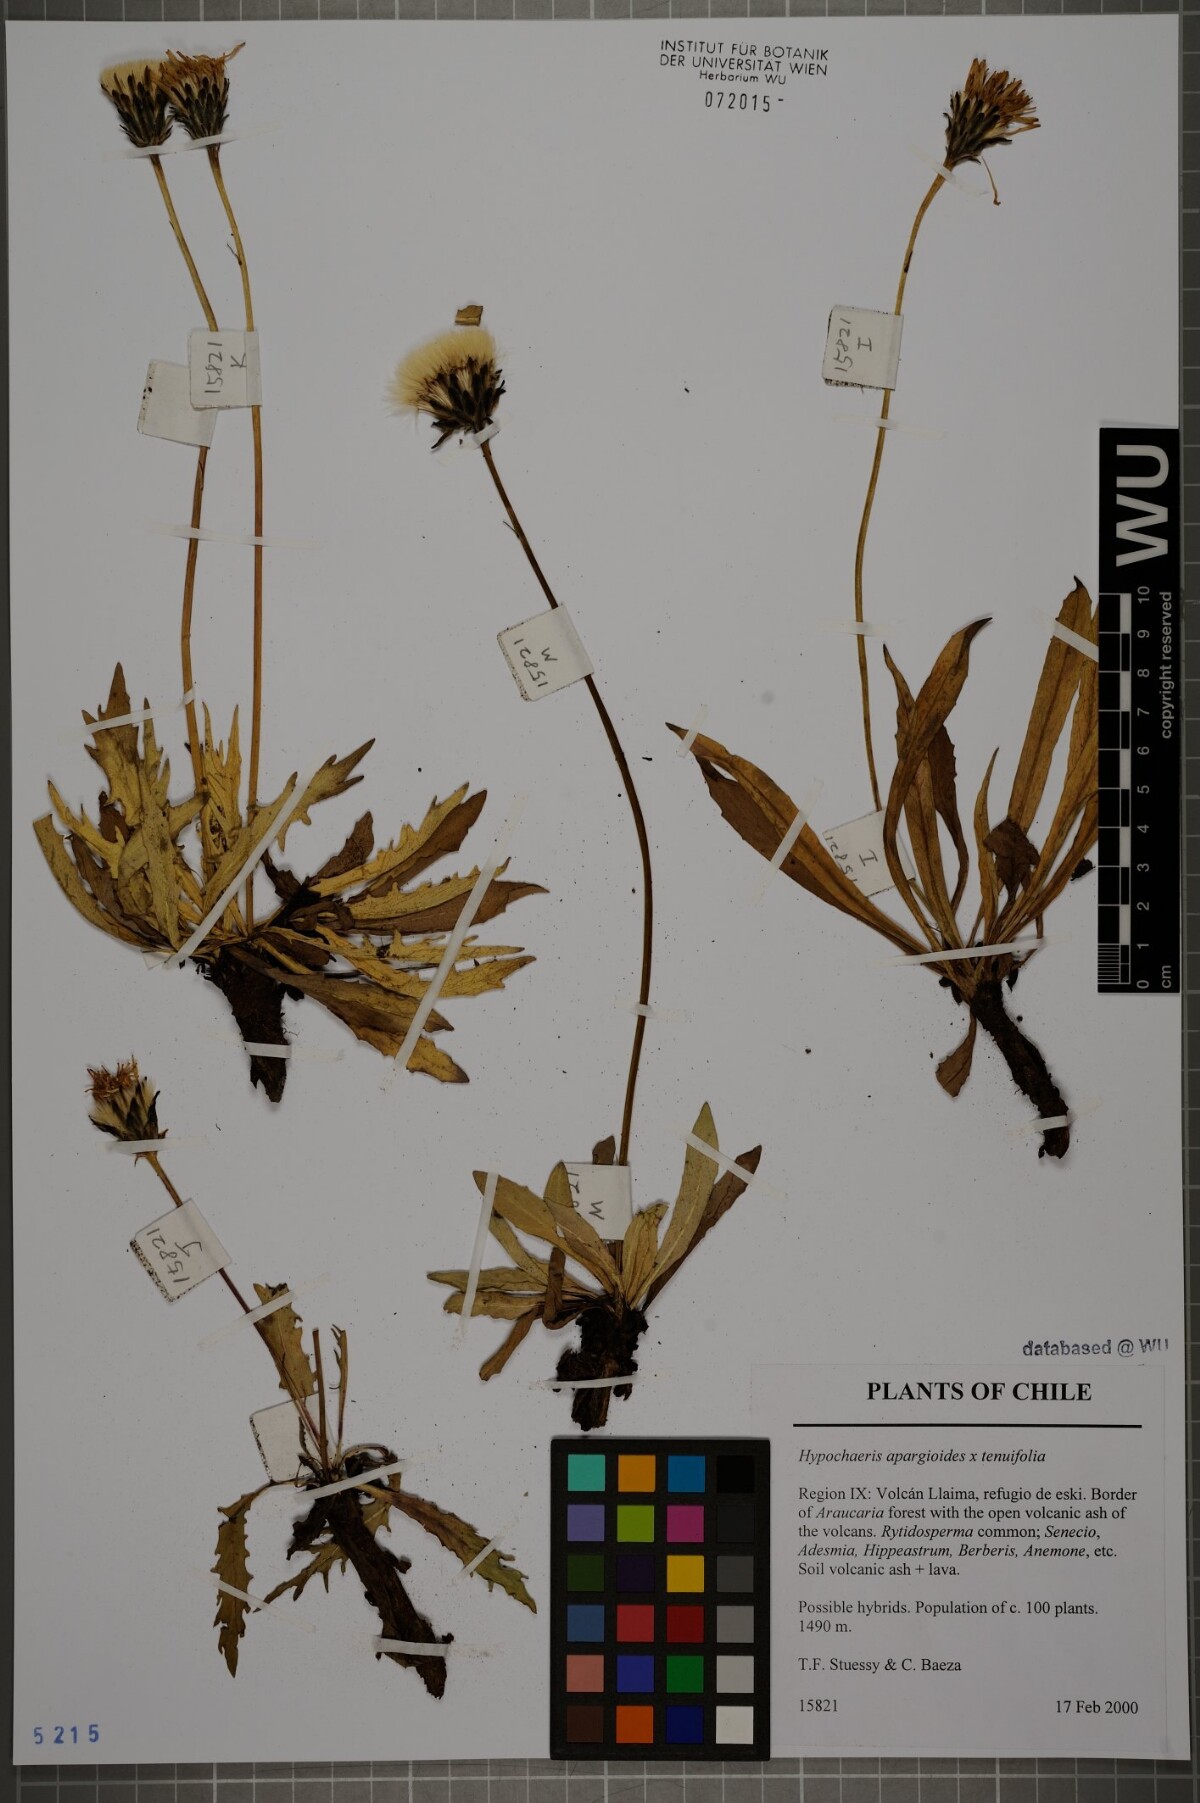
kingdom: Plantae
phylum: Tracheophyta
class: Magnoliopsida
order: Asterales
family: Asteraceae
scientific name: Asteraceae
